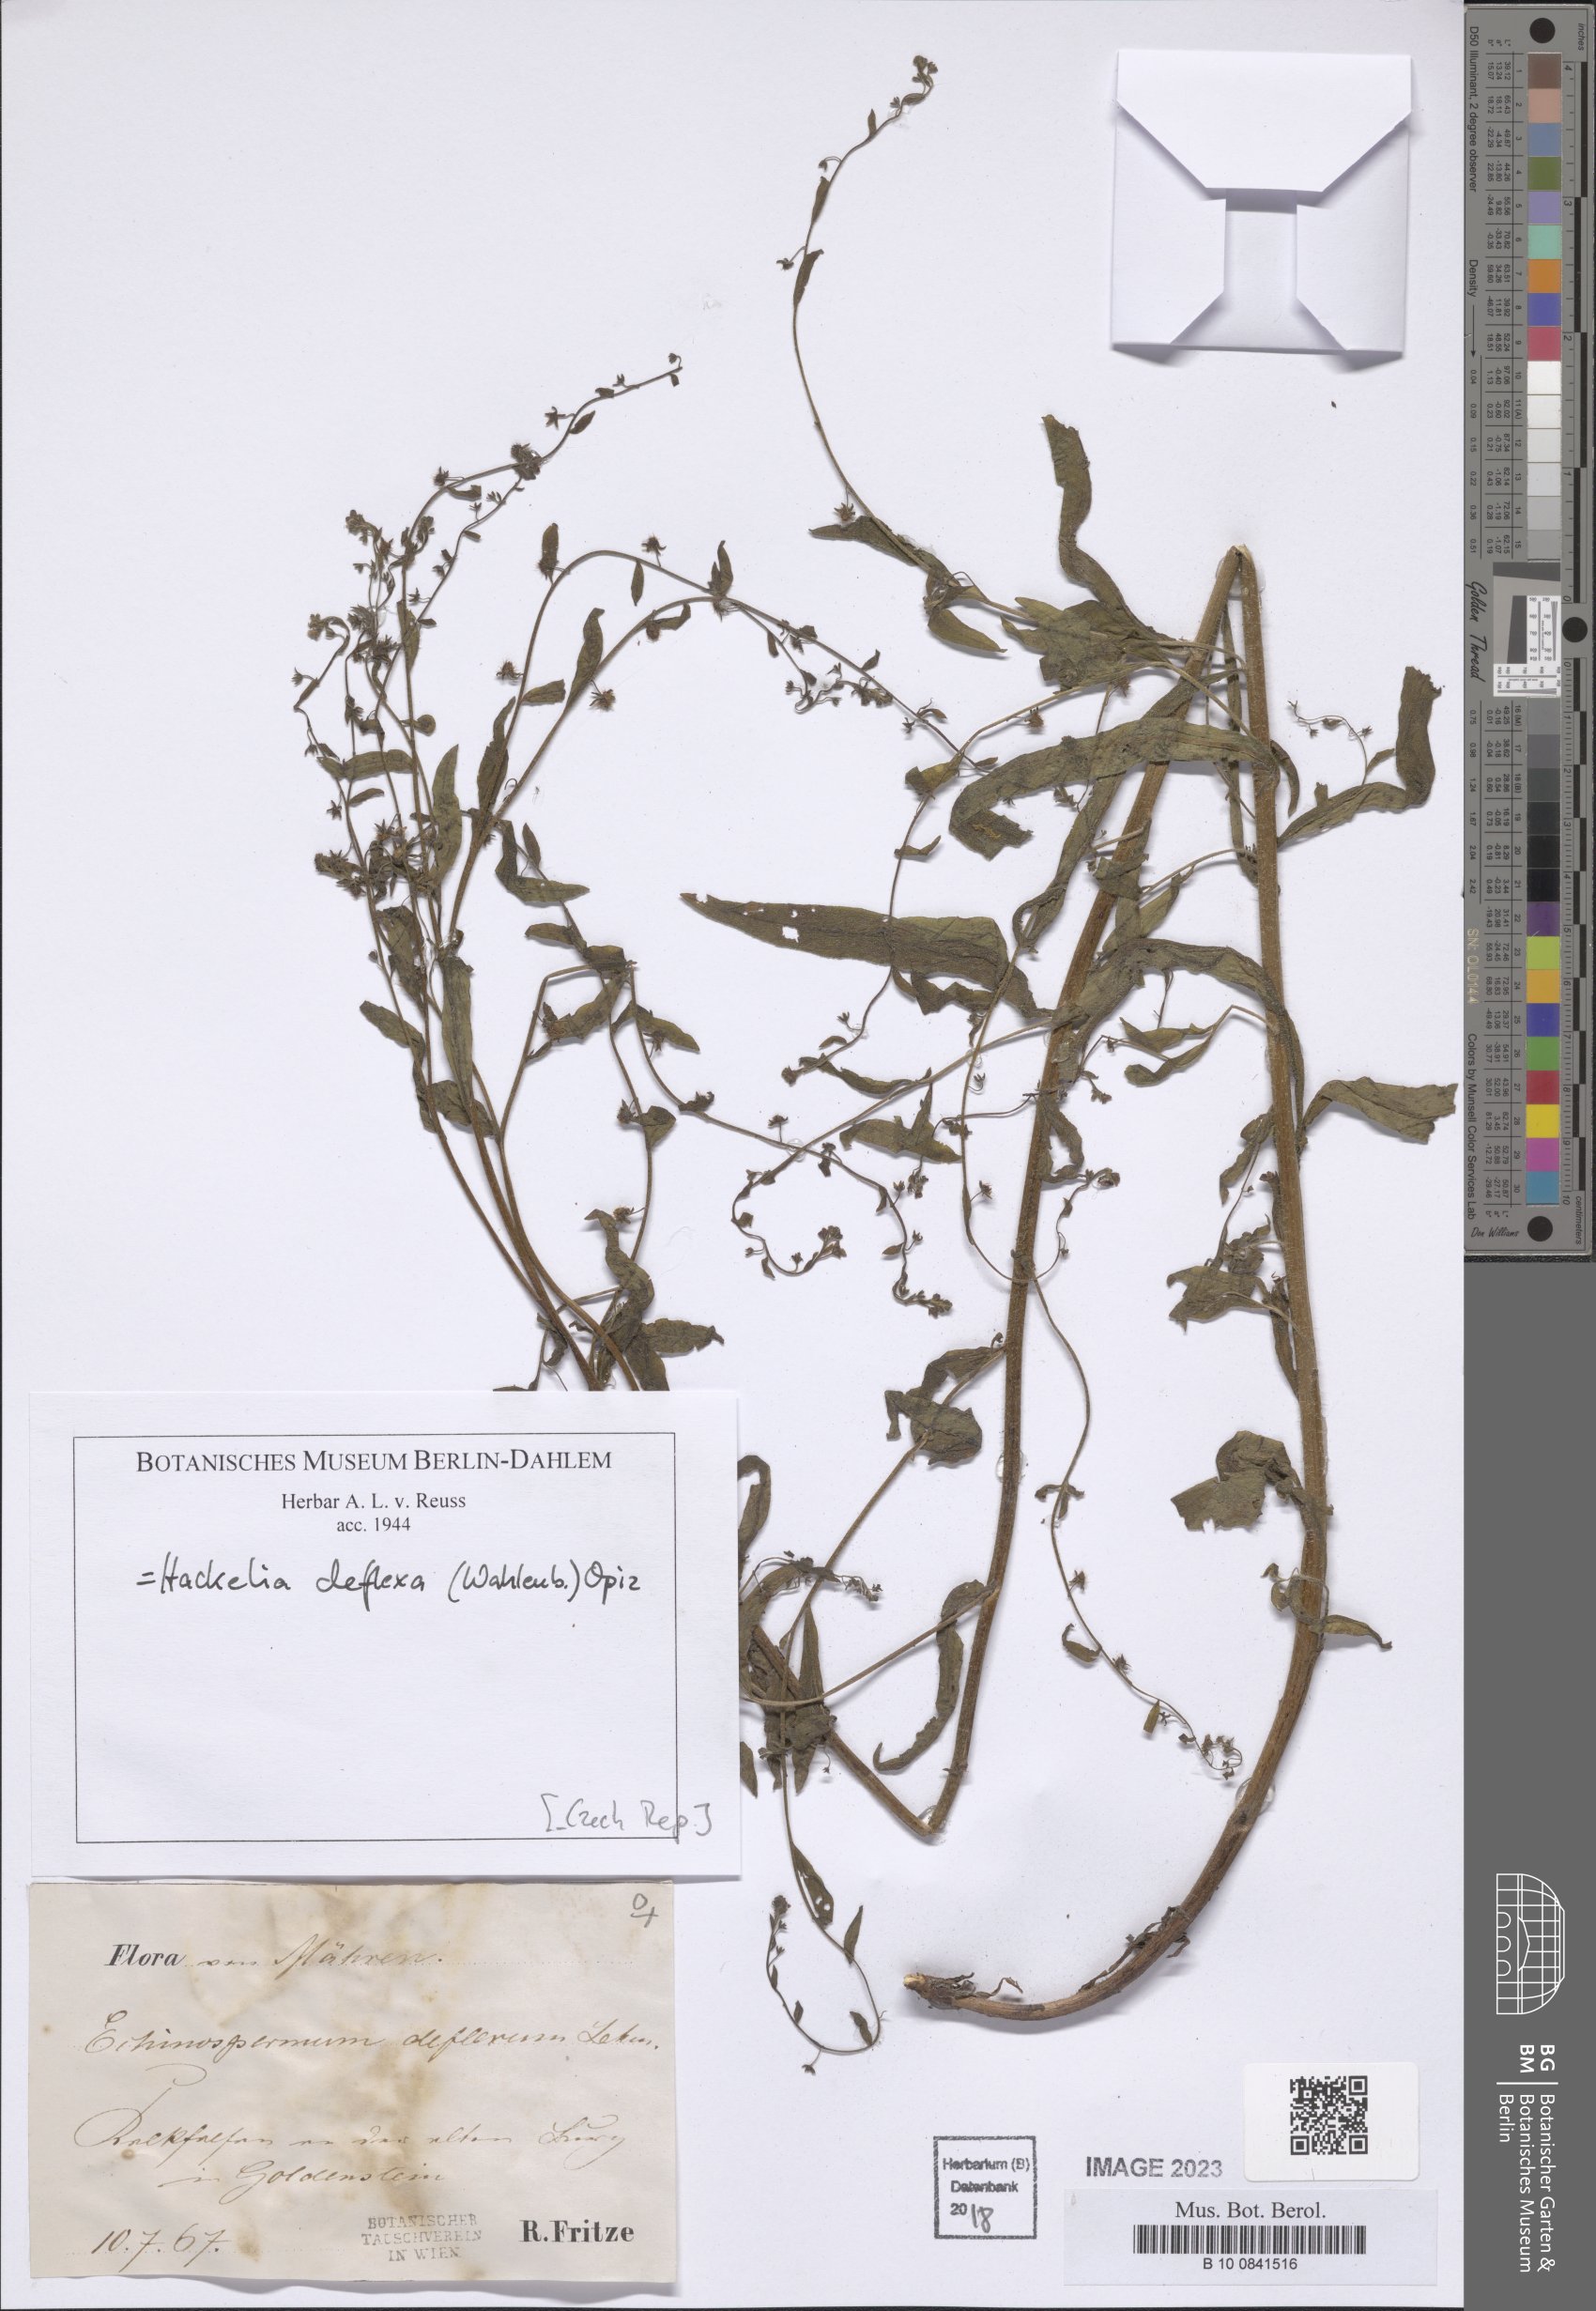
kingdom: Plantae
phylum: Tracheophyta
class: Magnoliopsida
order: Boraginales
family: Boraginaceae
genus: Hackelia
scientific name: Hackelia deflexa
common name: Nodding stickseed
